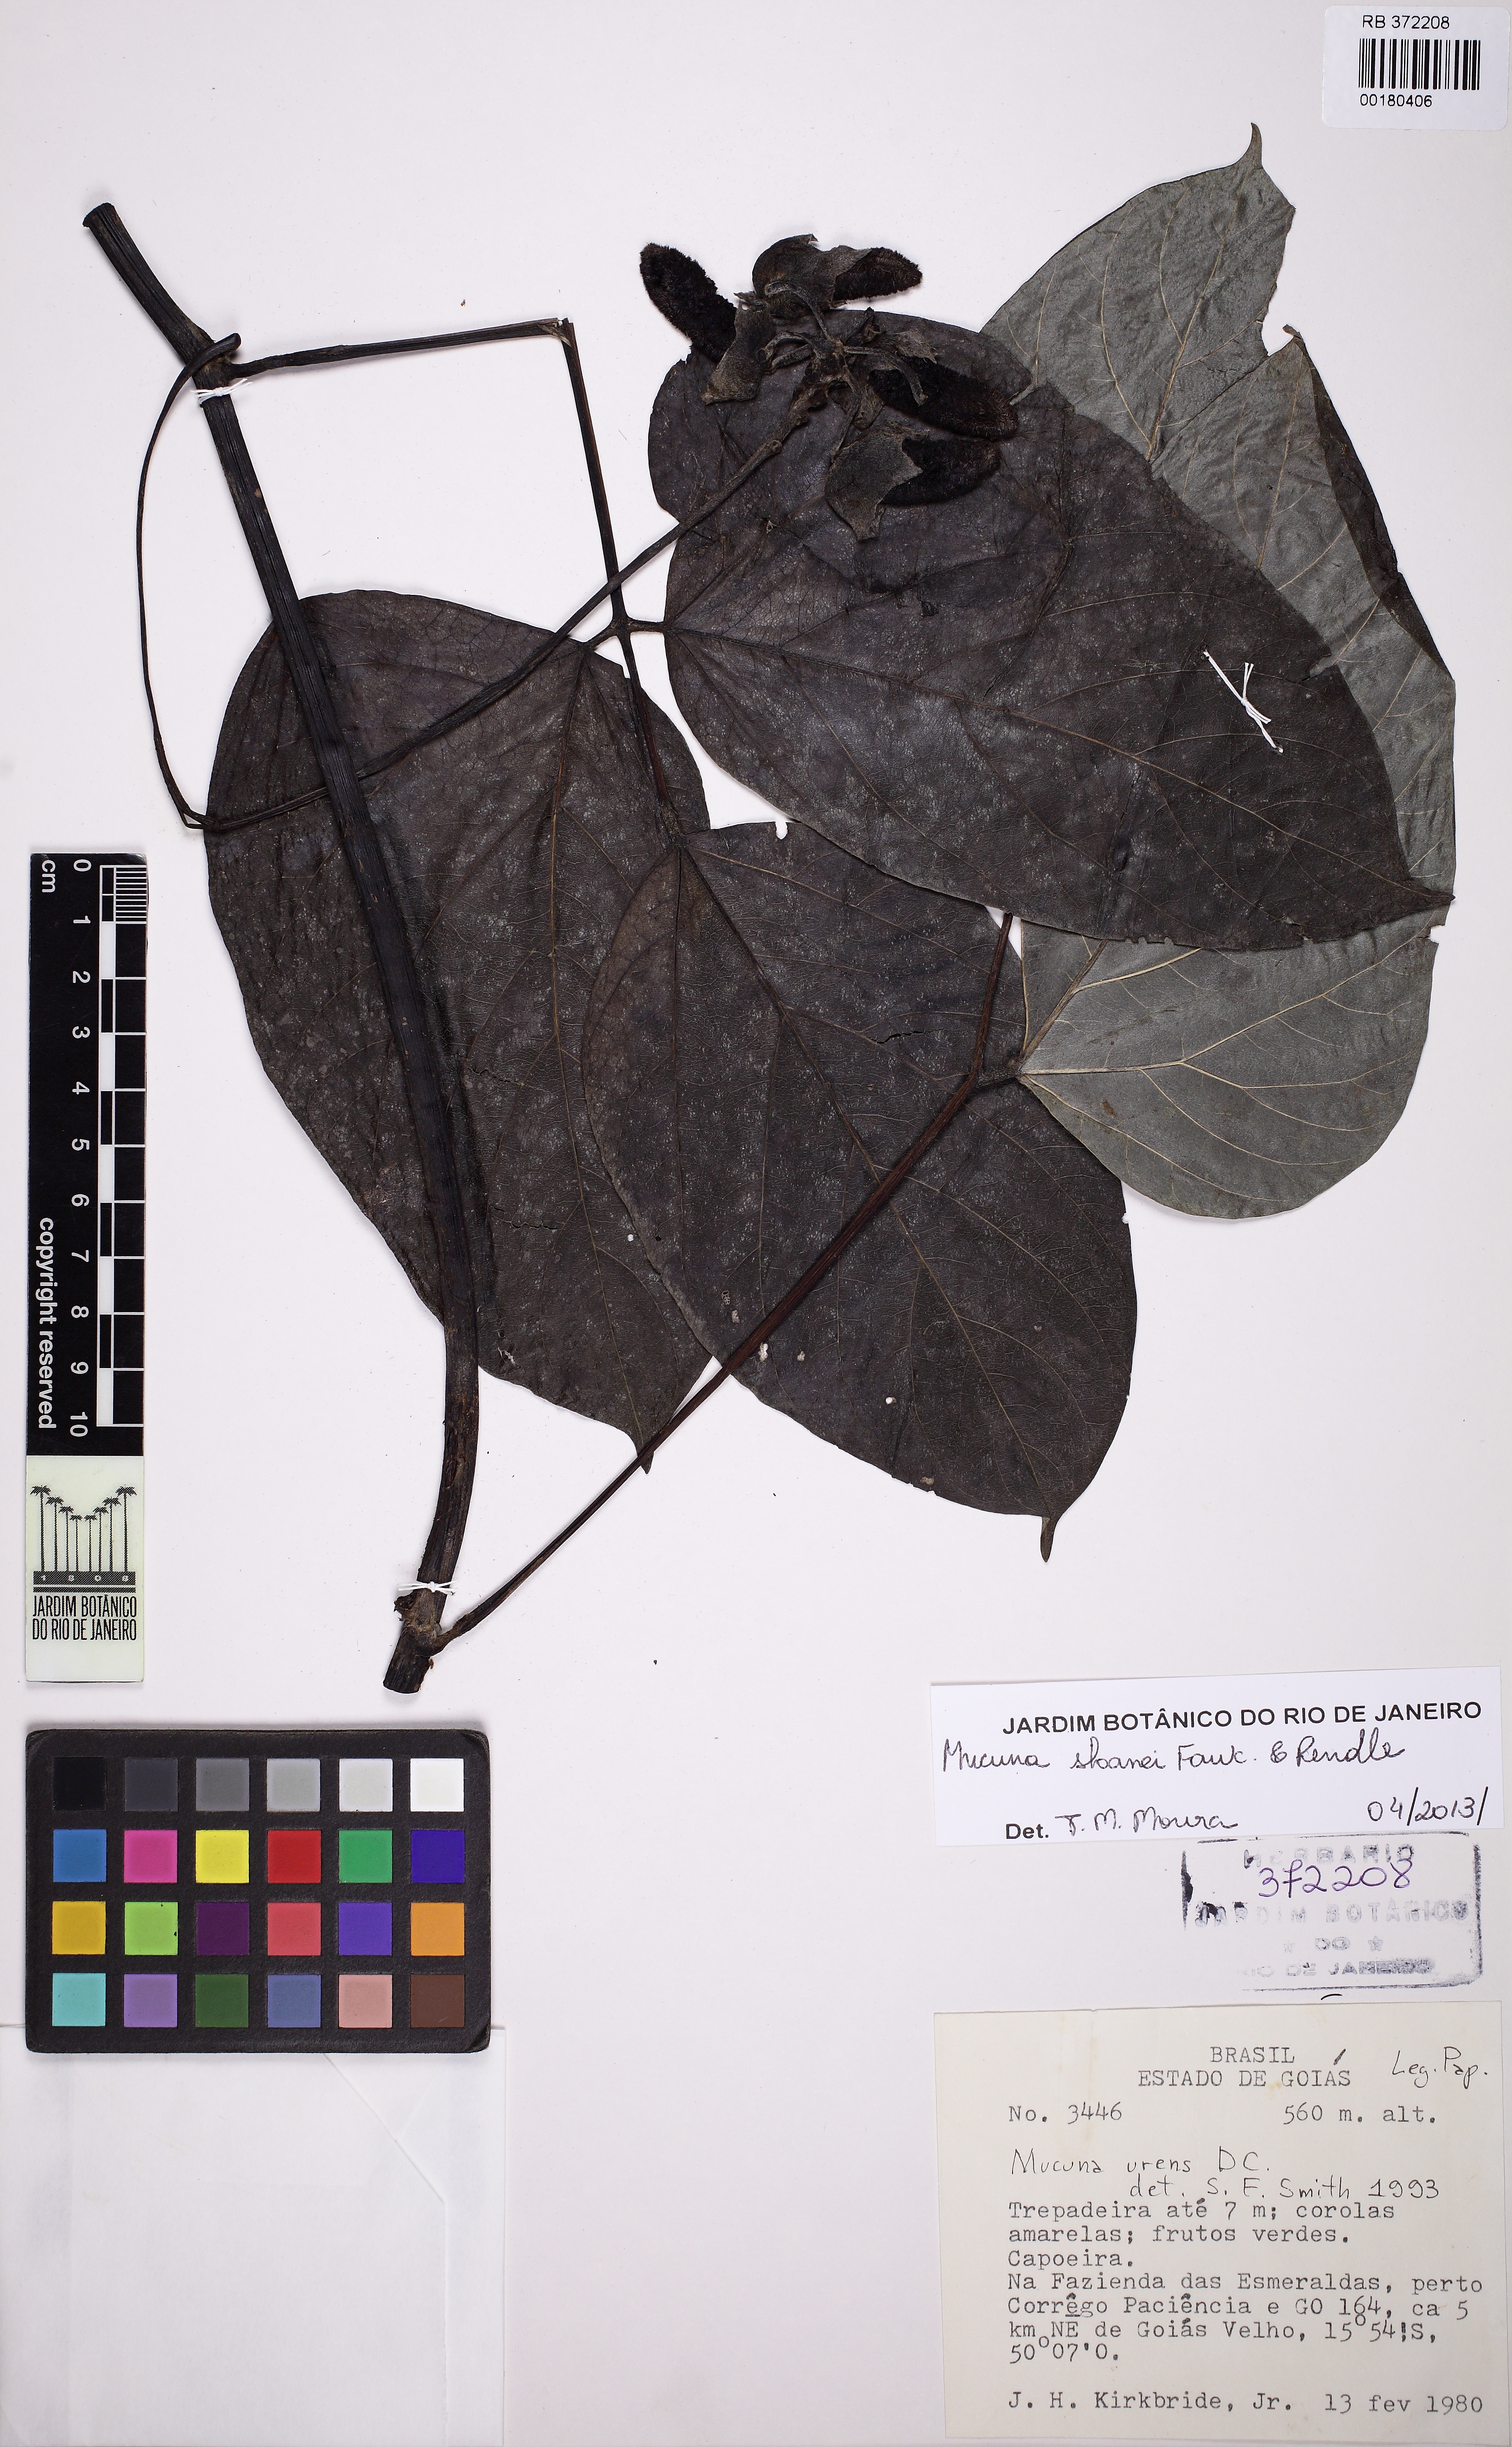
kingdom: Plantae
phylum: Tracheophyta
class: Magnoliopsida
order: Fabales
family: Fabaceae
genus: Mucuna
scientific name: Mucuna sloanei
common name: Horse-eye bean
